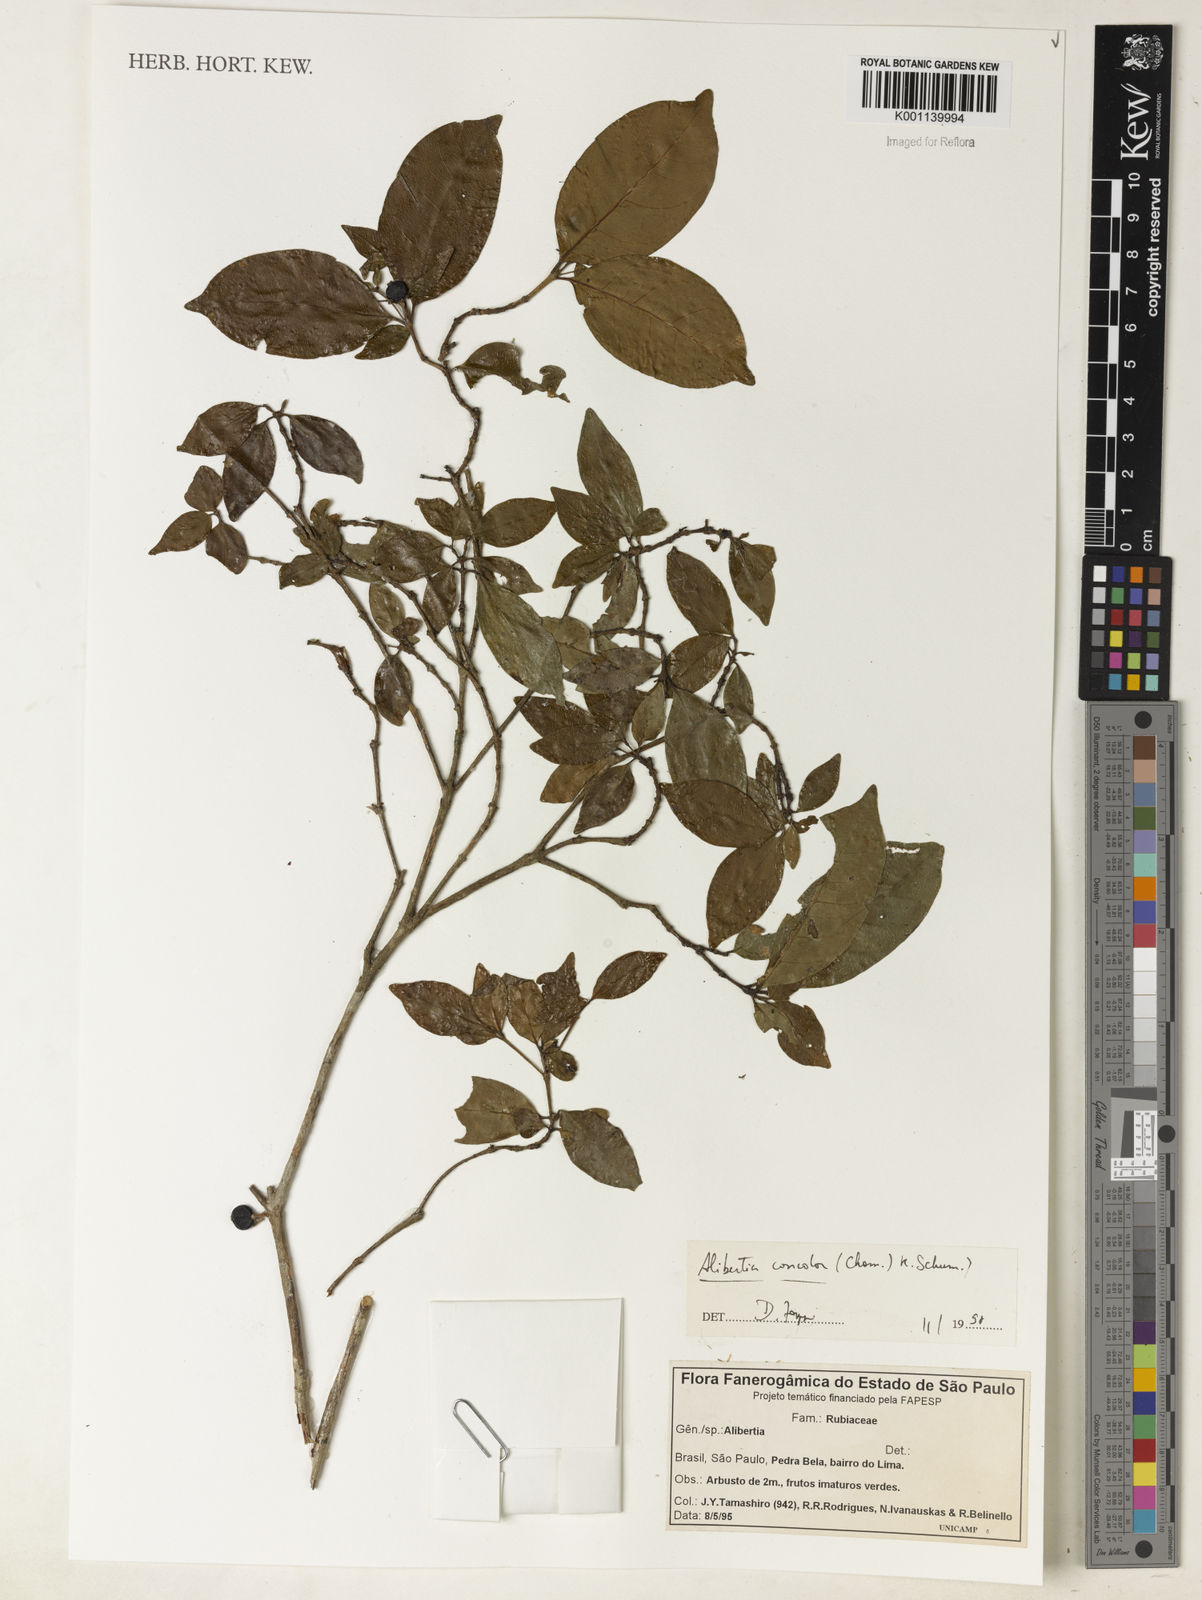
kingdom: Plantae
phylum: Tracheophyta
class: Magnoliopsida
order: Gentianales
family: Rubiaceae
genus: Cordiera
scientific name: Cordiera concolor
